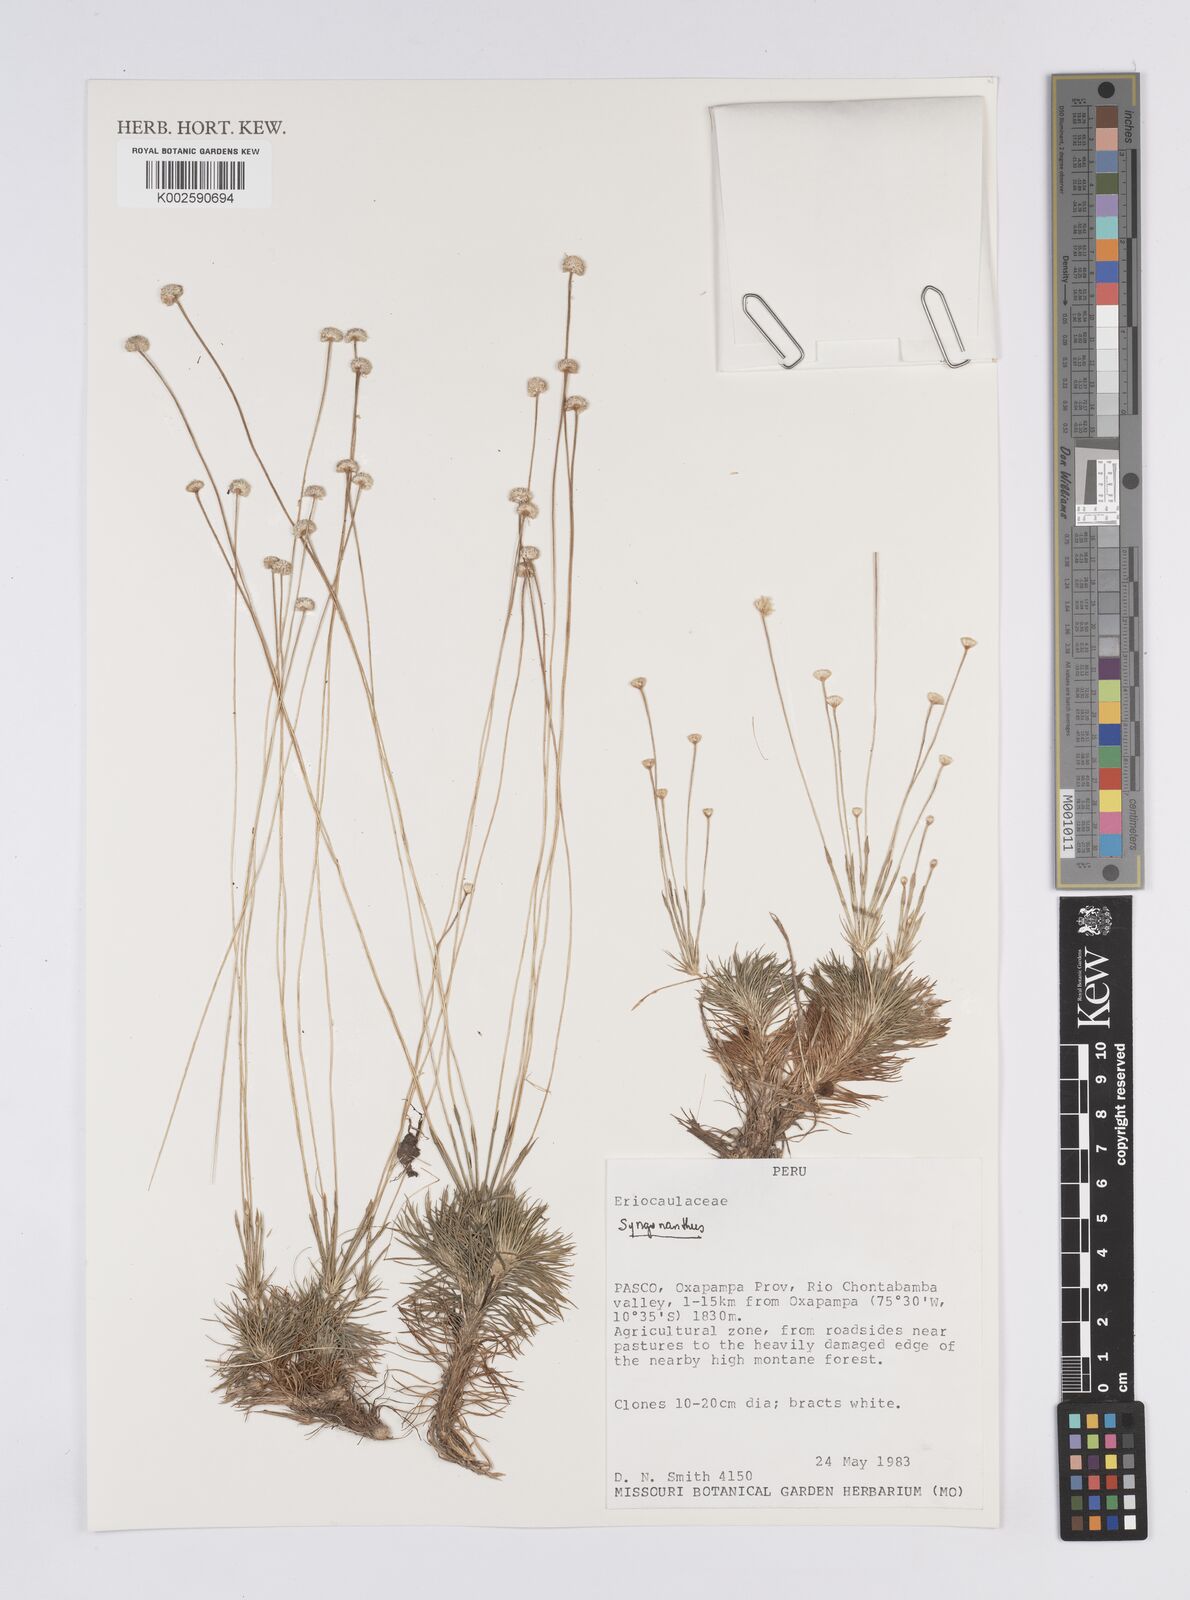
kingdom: Plantae
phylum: Tracheophyta
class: Liliopsida
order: Poales
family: Eriocaulaceae
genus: Syngonanthus
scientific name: Syngonanthus
